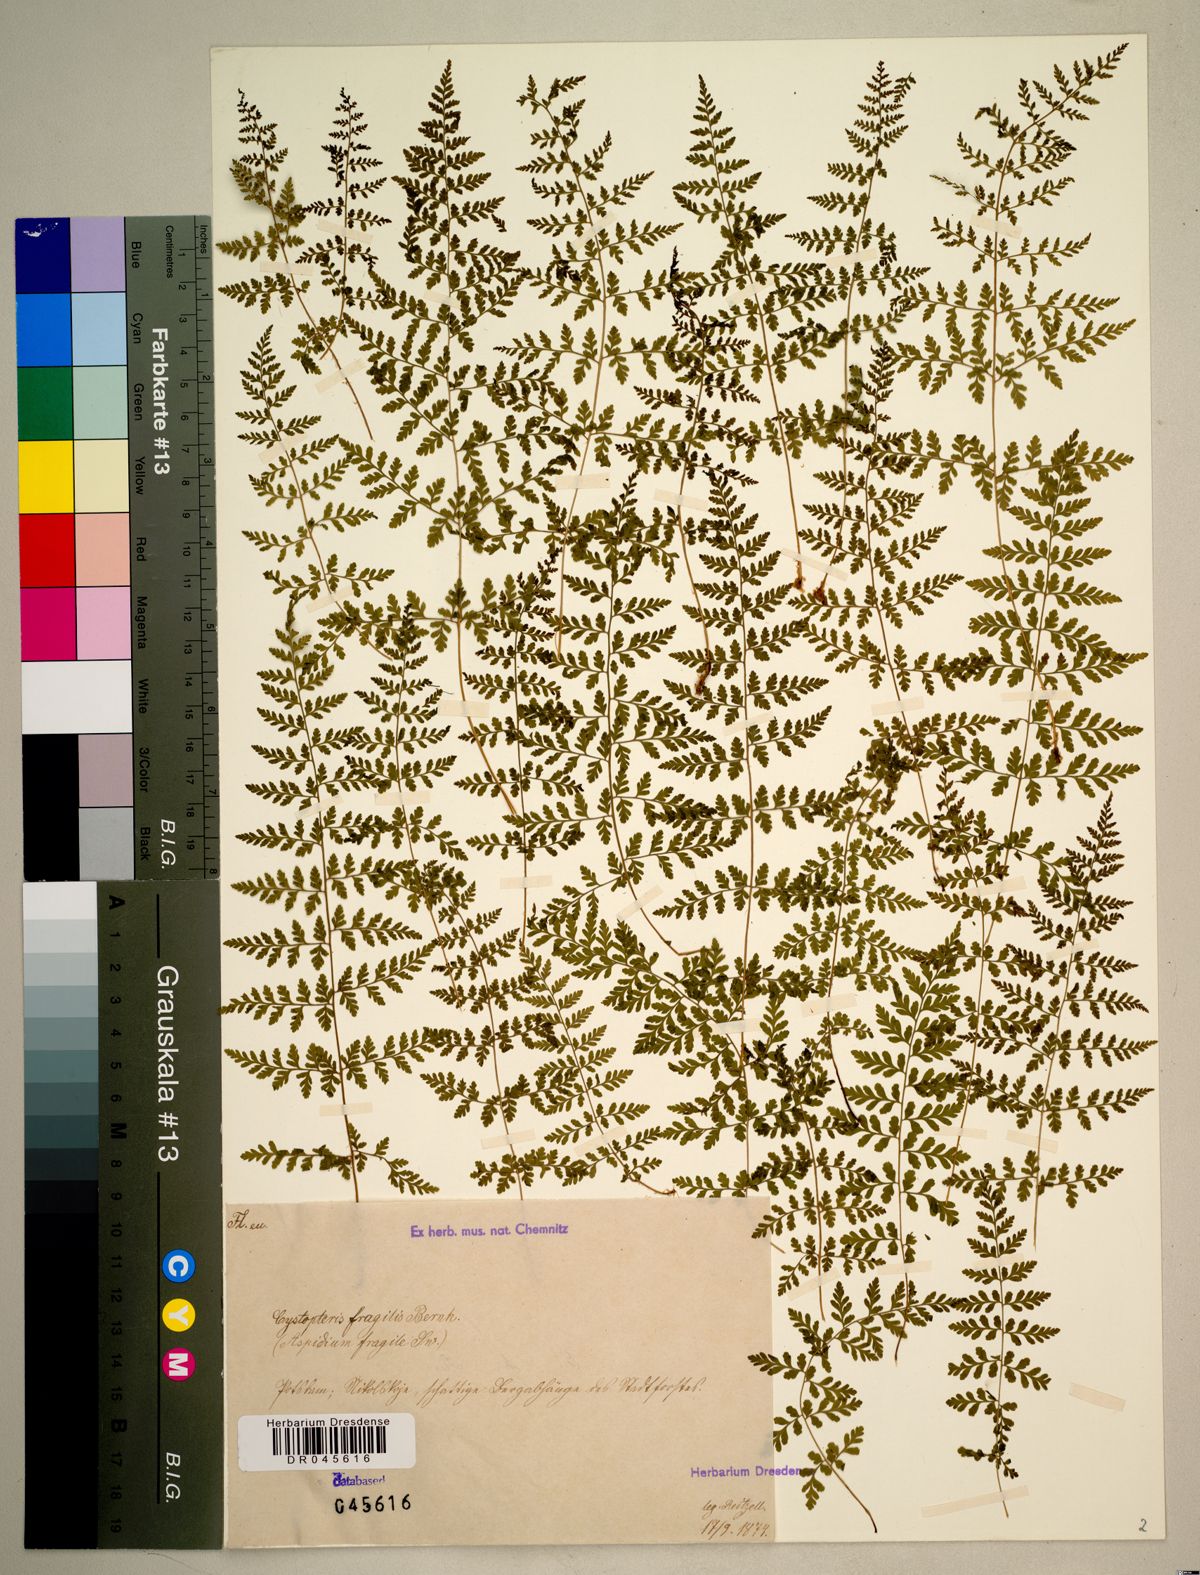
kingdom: Plantae
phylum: Tracheophyta
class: Polypodiopsida
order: Polypodiales
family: Cystopteridaceae
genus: Cystopteris
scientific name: Cystopteris fragilis
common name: Brittle bladder fern
